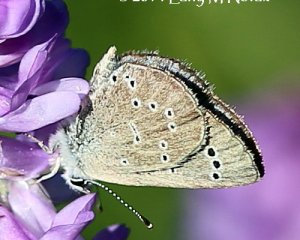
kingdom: Animalia
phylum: Arthropoda
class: Insecta
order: Lepidoptera
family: Lycaenidae
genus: Glaucopsyche
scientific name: Glaucopsyche lygdamus
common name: Silvery Blue
